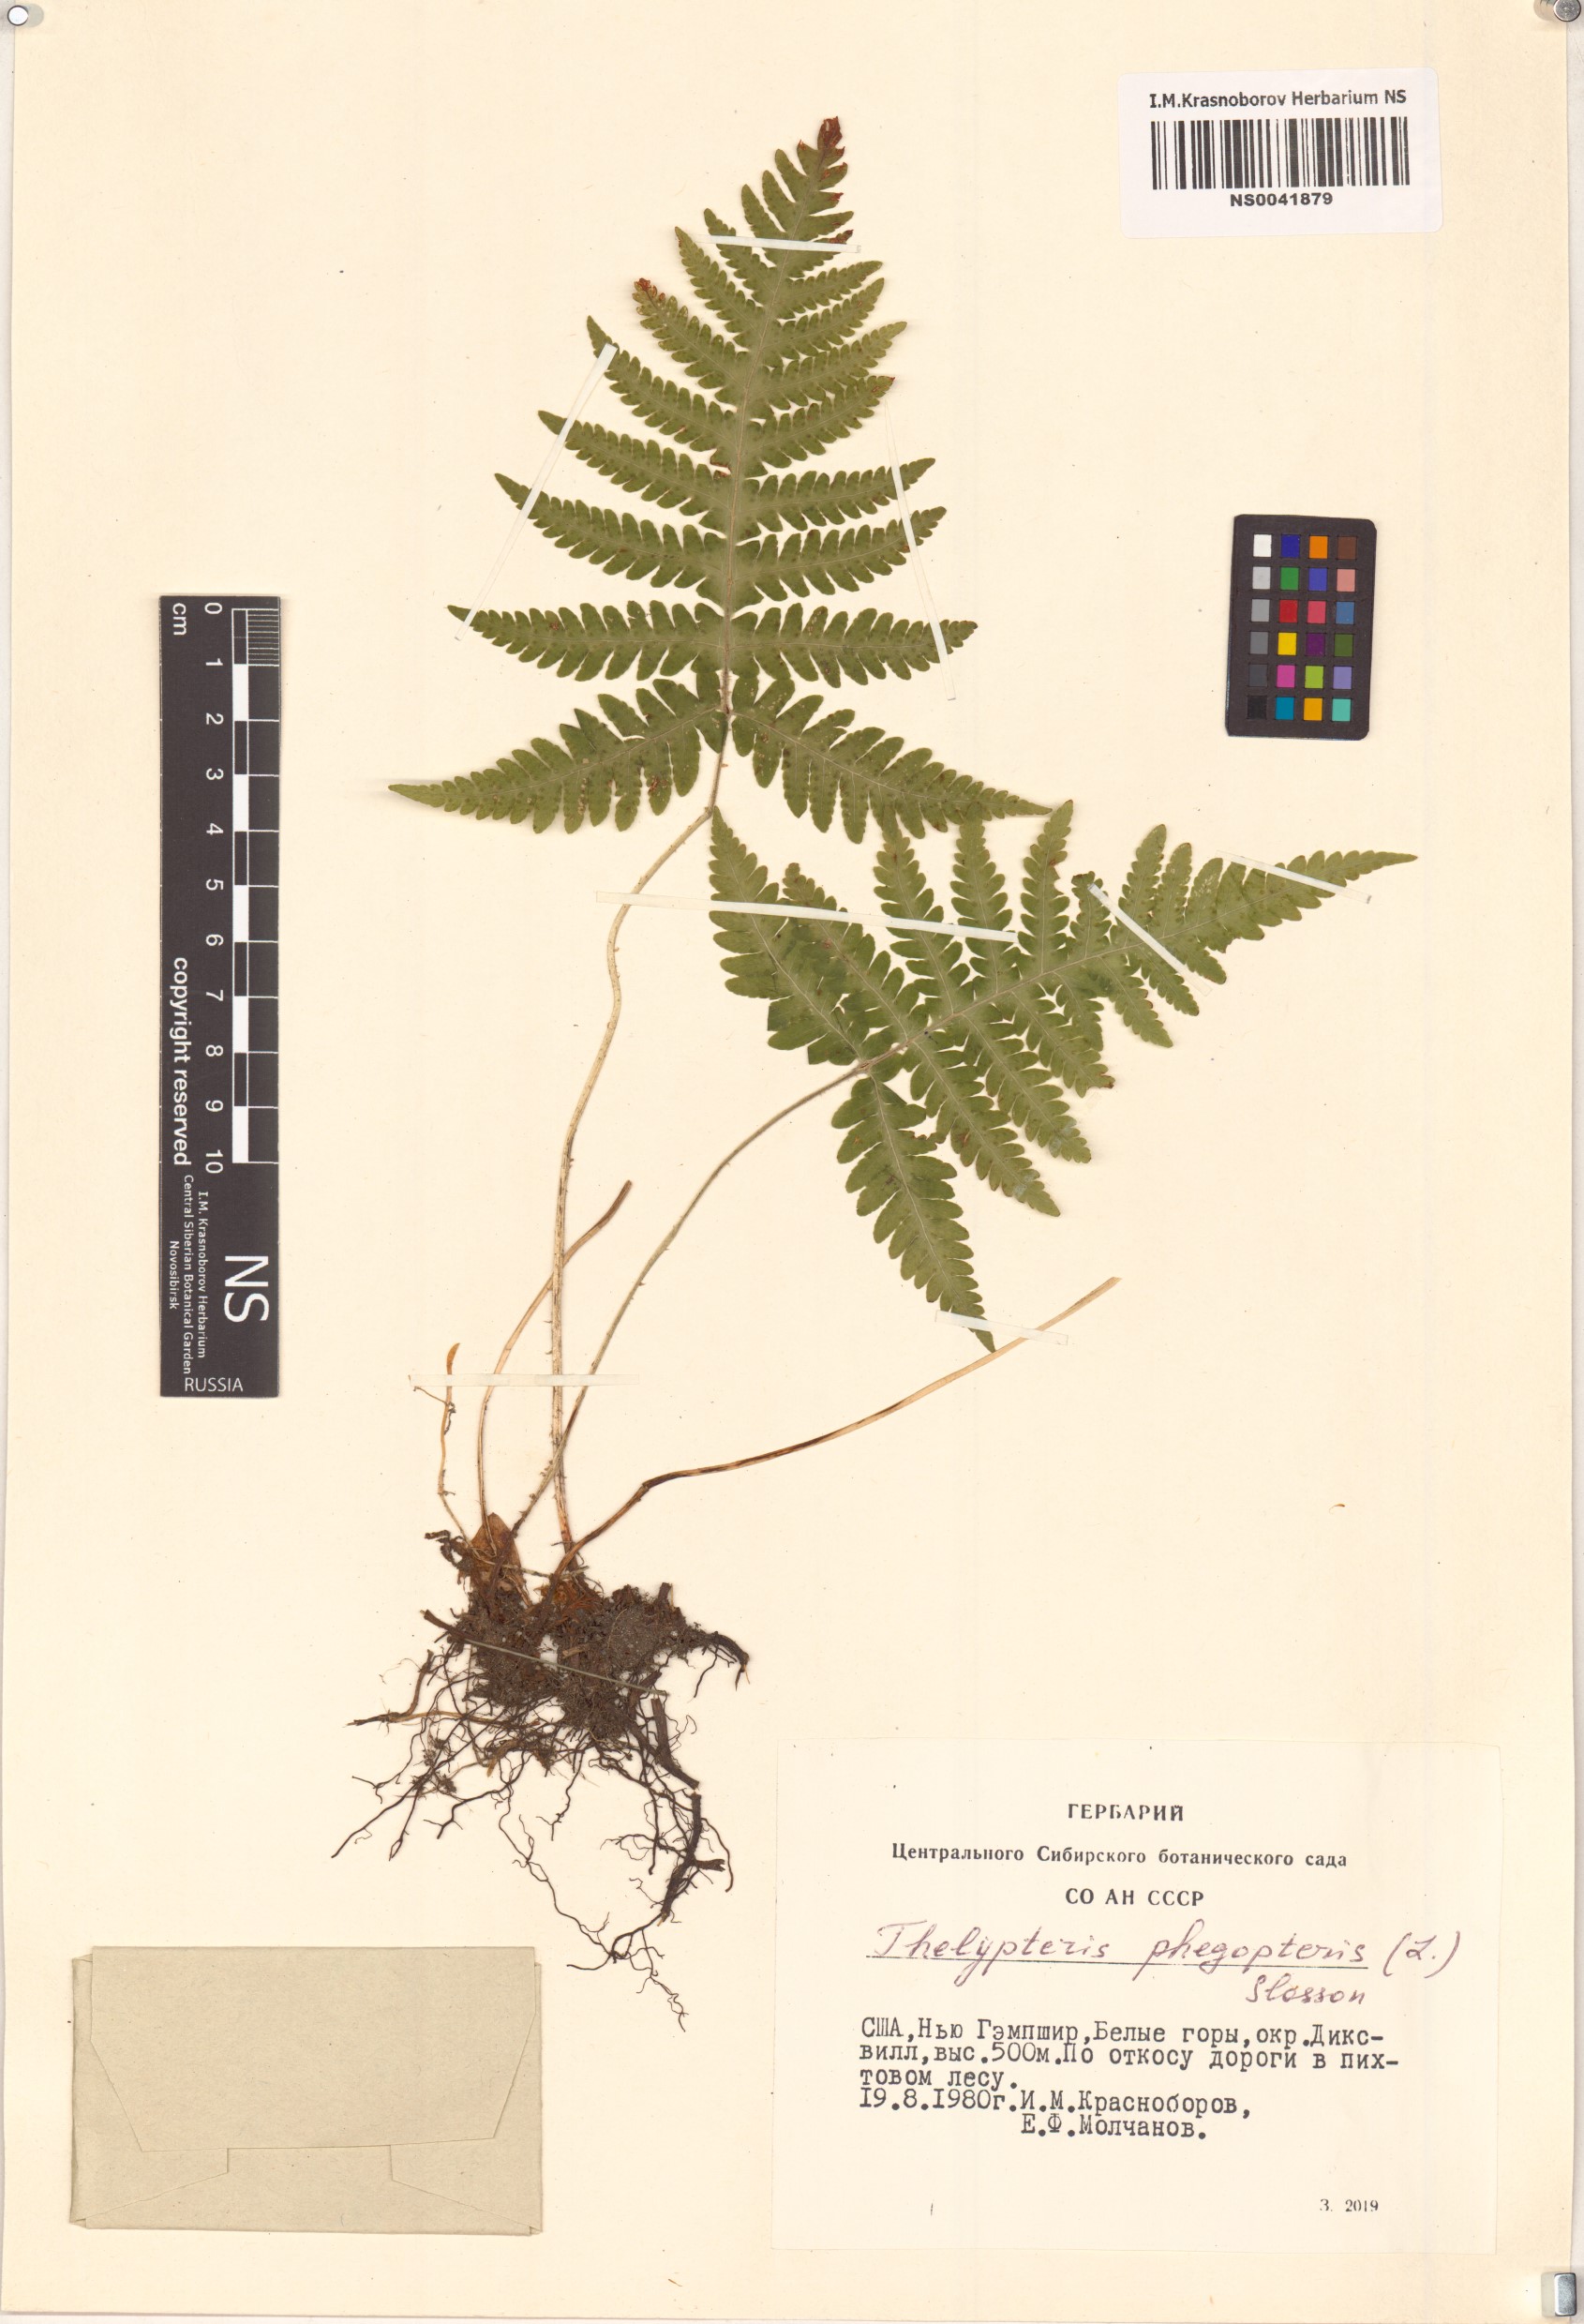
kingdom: Plantae
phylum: Tracheophyta
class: Polypodiopsida
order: Polypodiales
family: Thelypteridaceae
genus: Phegopteris
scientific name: Phegopteris connectilis
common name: Beech fern
